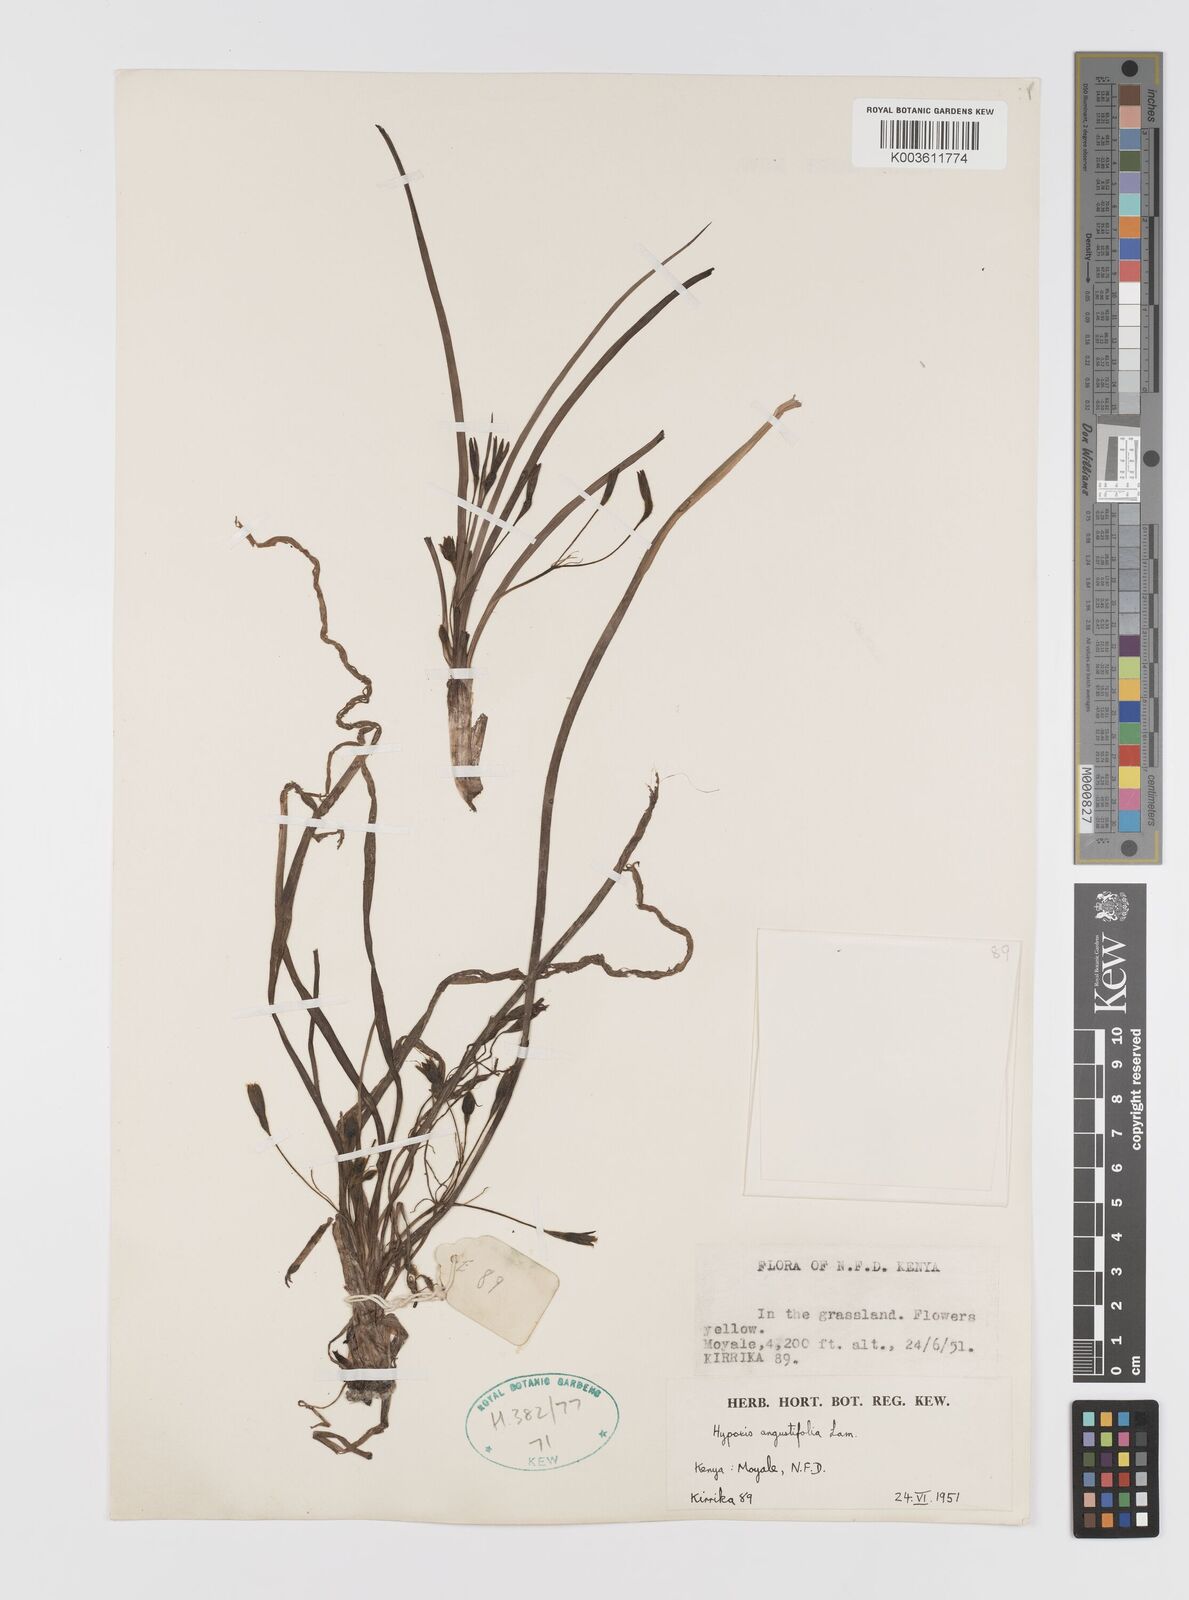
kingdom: Plantae
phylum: Tracheophyta
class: Liliopsida
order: Asparagales
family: Hypoxidaceae
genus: Hypoxis
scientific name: Hypoxis angustifolia
